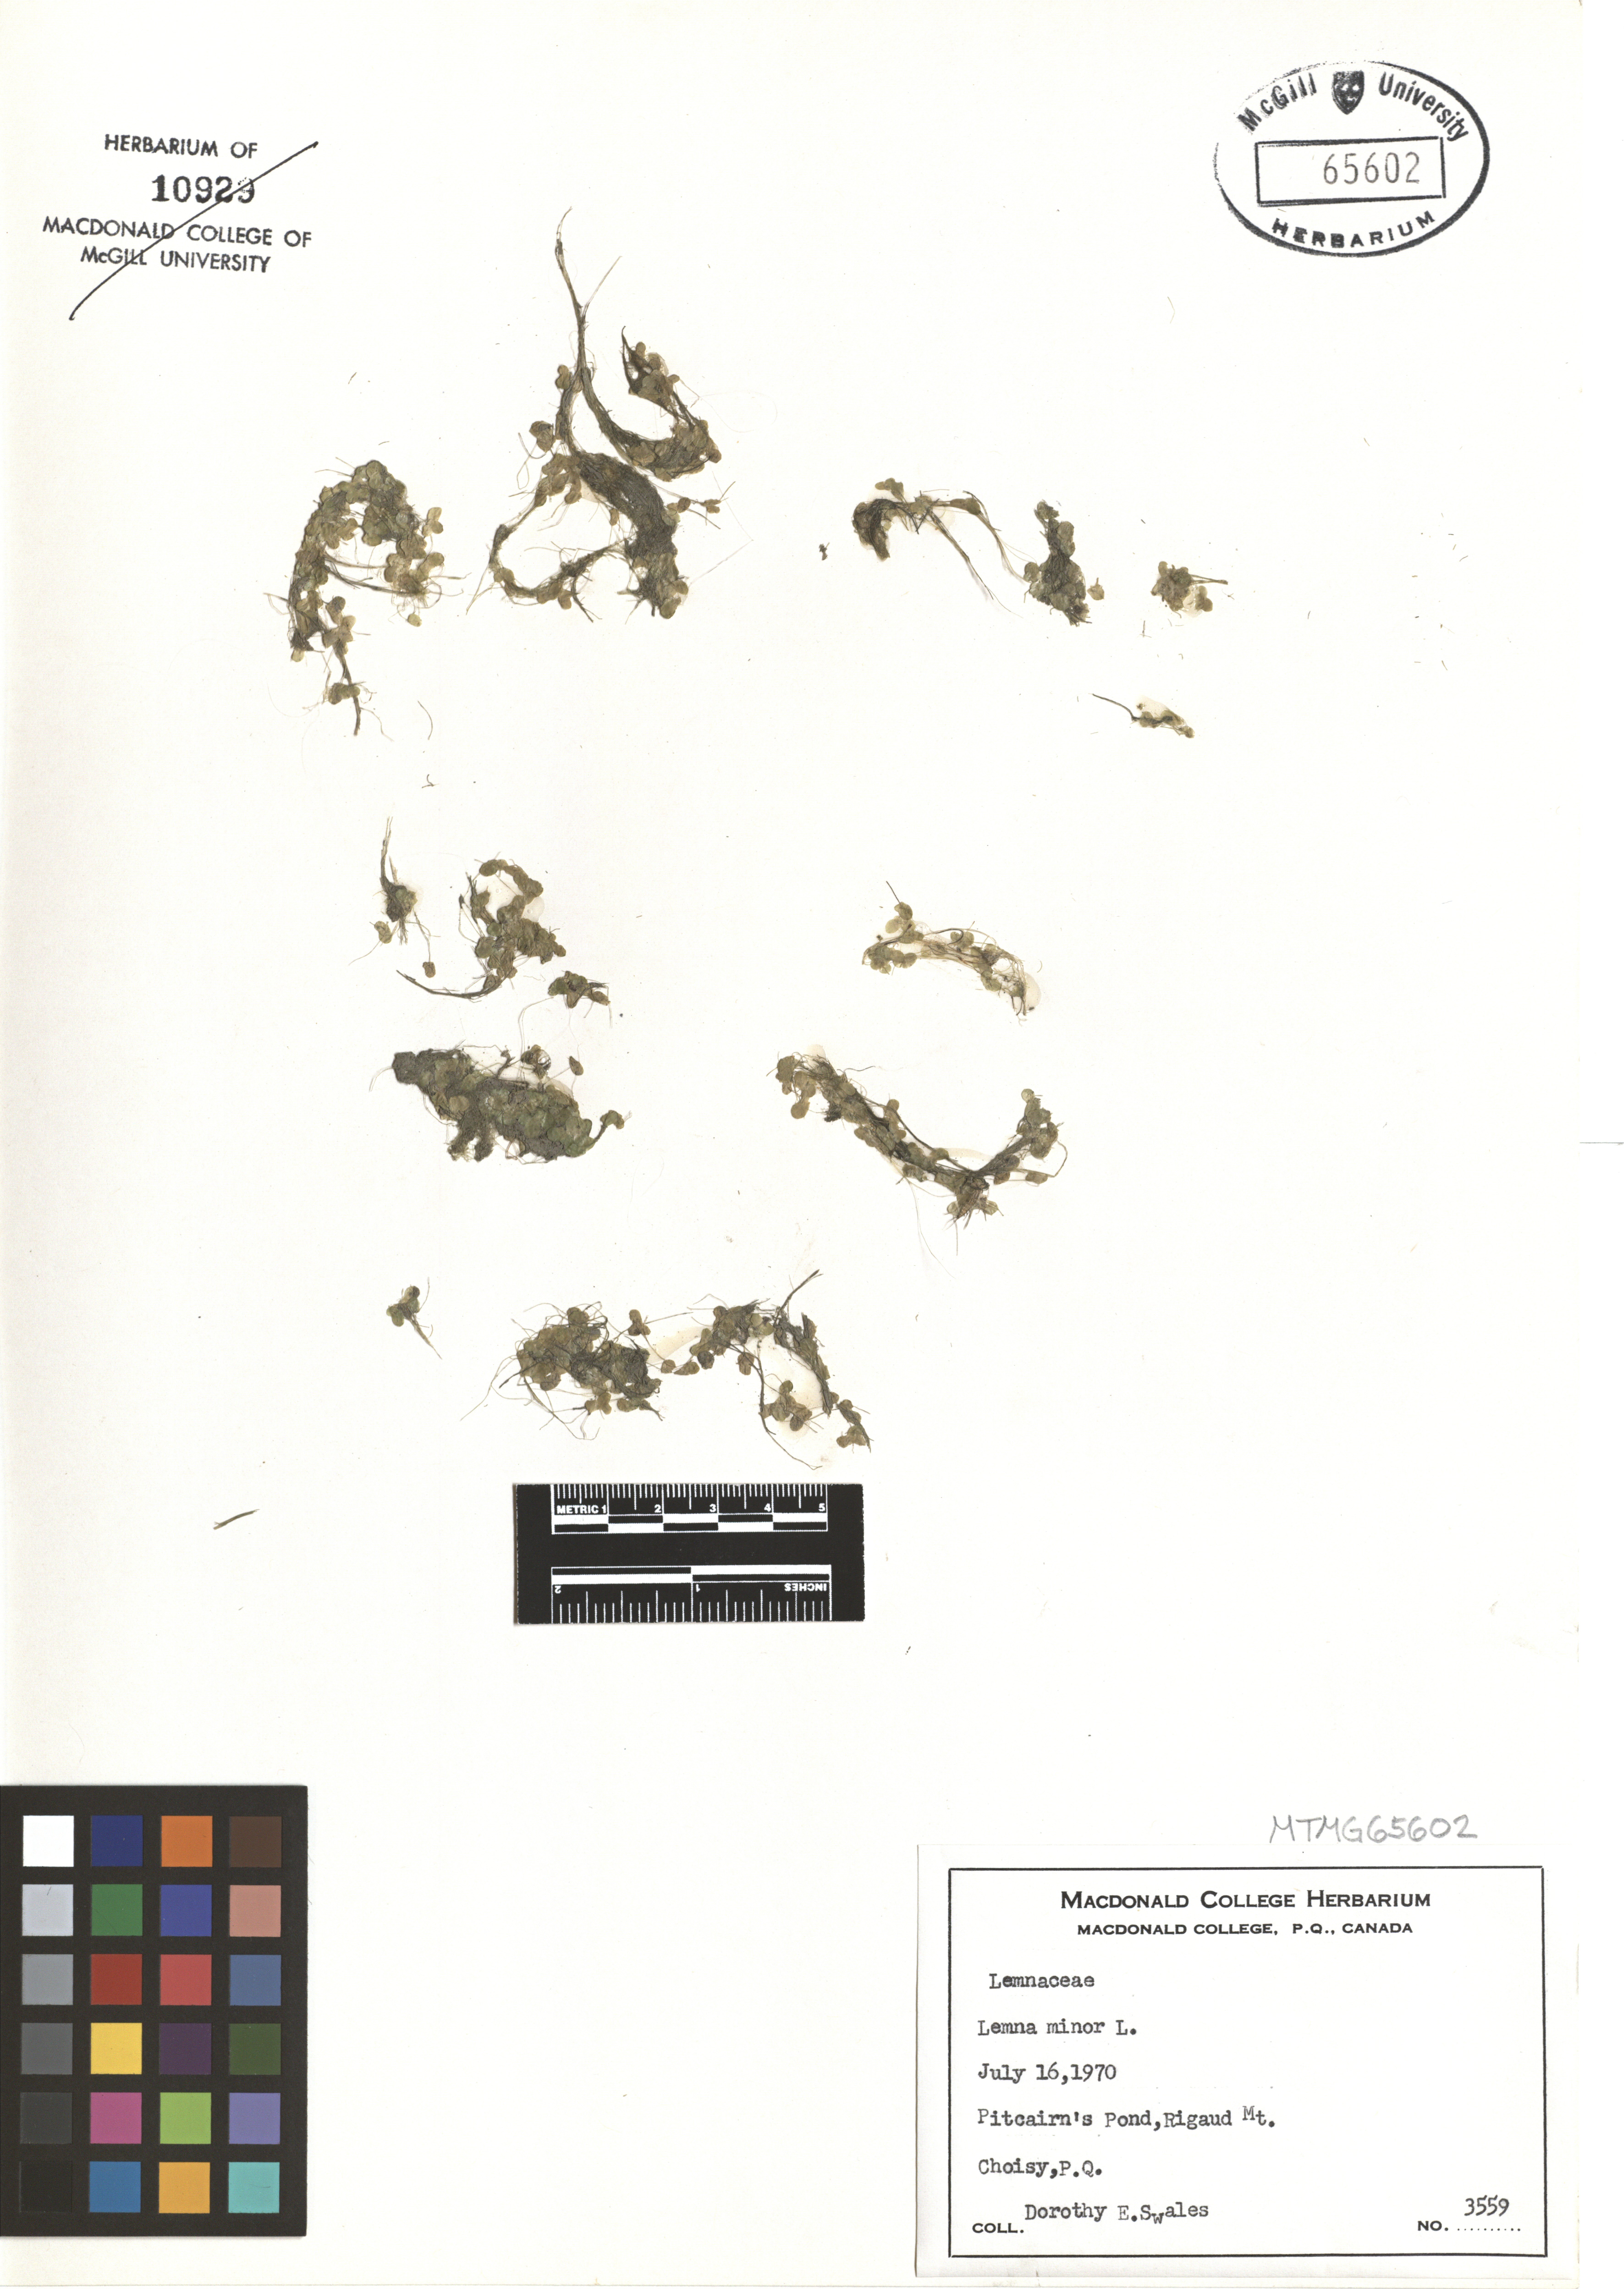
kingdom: Plantae
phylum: Tracheophyta
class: Liliopsida
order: Alismatales
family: Araceae
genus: Lemna
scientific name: Lemna minor
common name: Common duckweed
